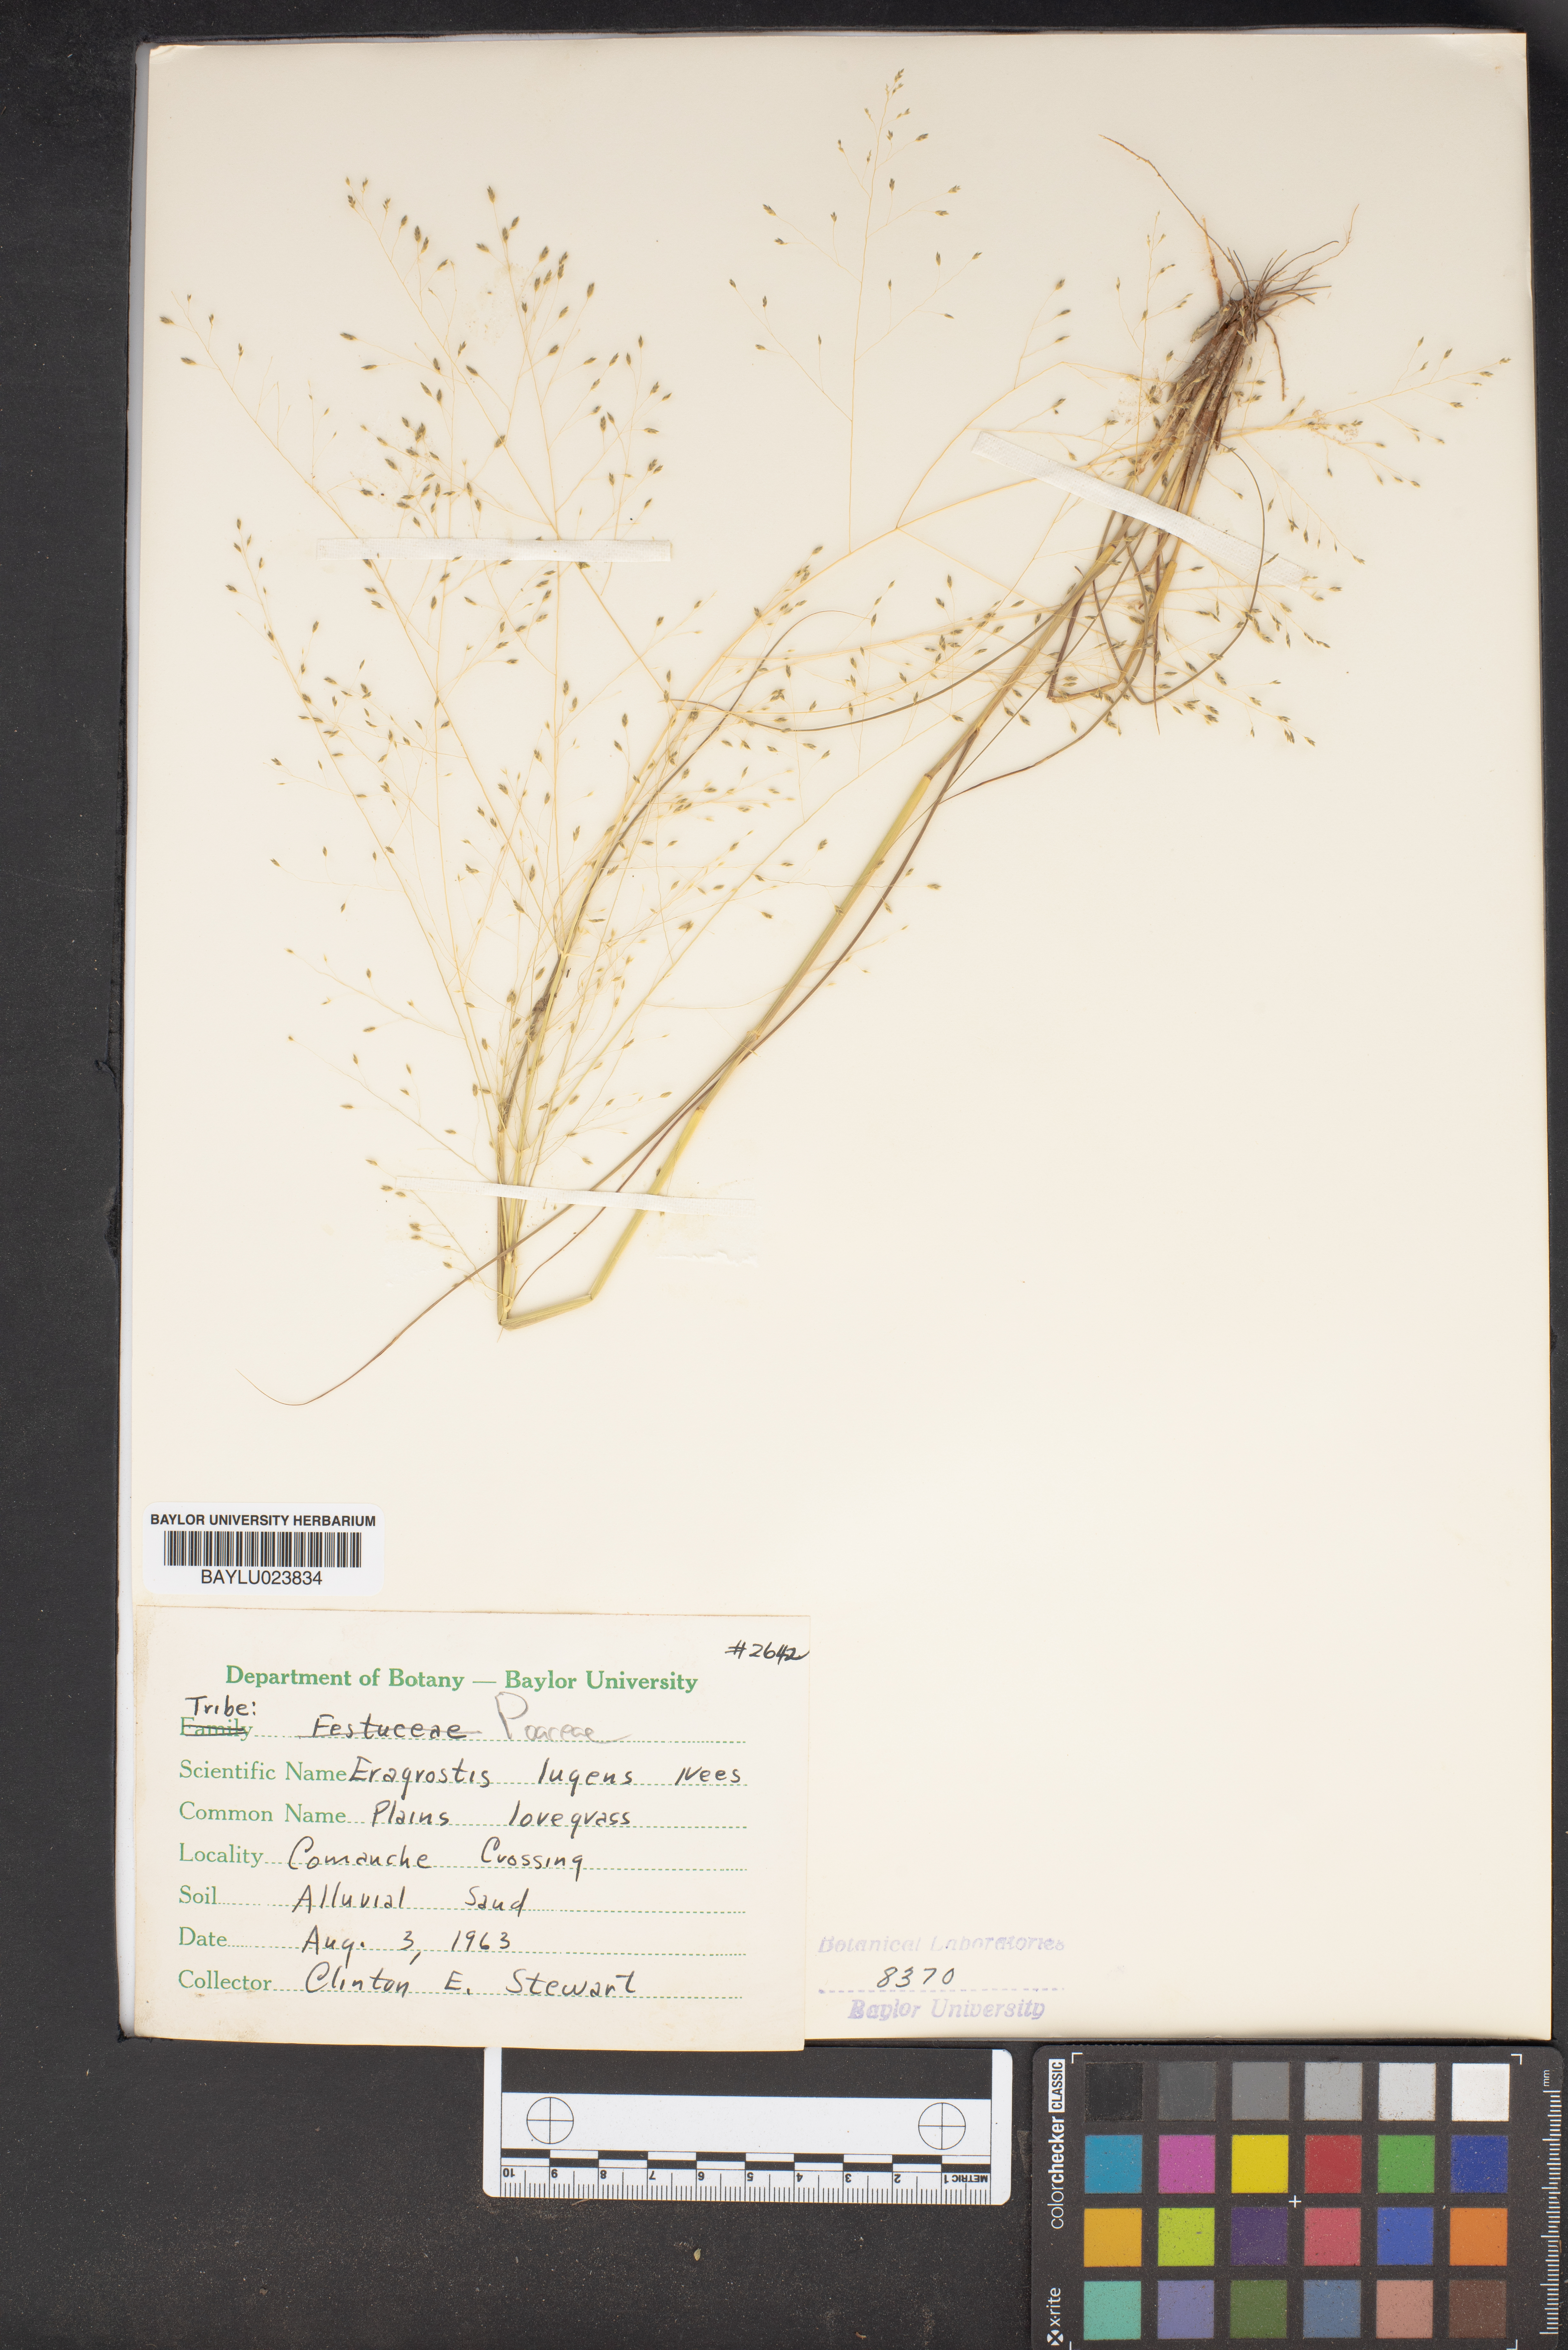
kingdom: Plantae
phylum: Tracheophyta
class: Liliopsida
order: Poales
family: Poaceae
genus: Eragrostis
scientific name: Eragrostis capillaris
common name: Hair-like lovegrass
